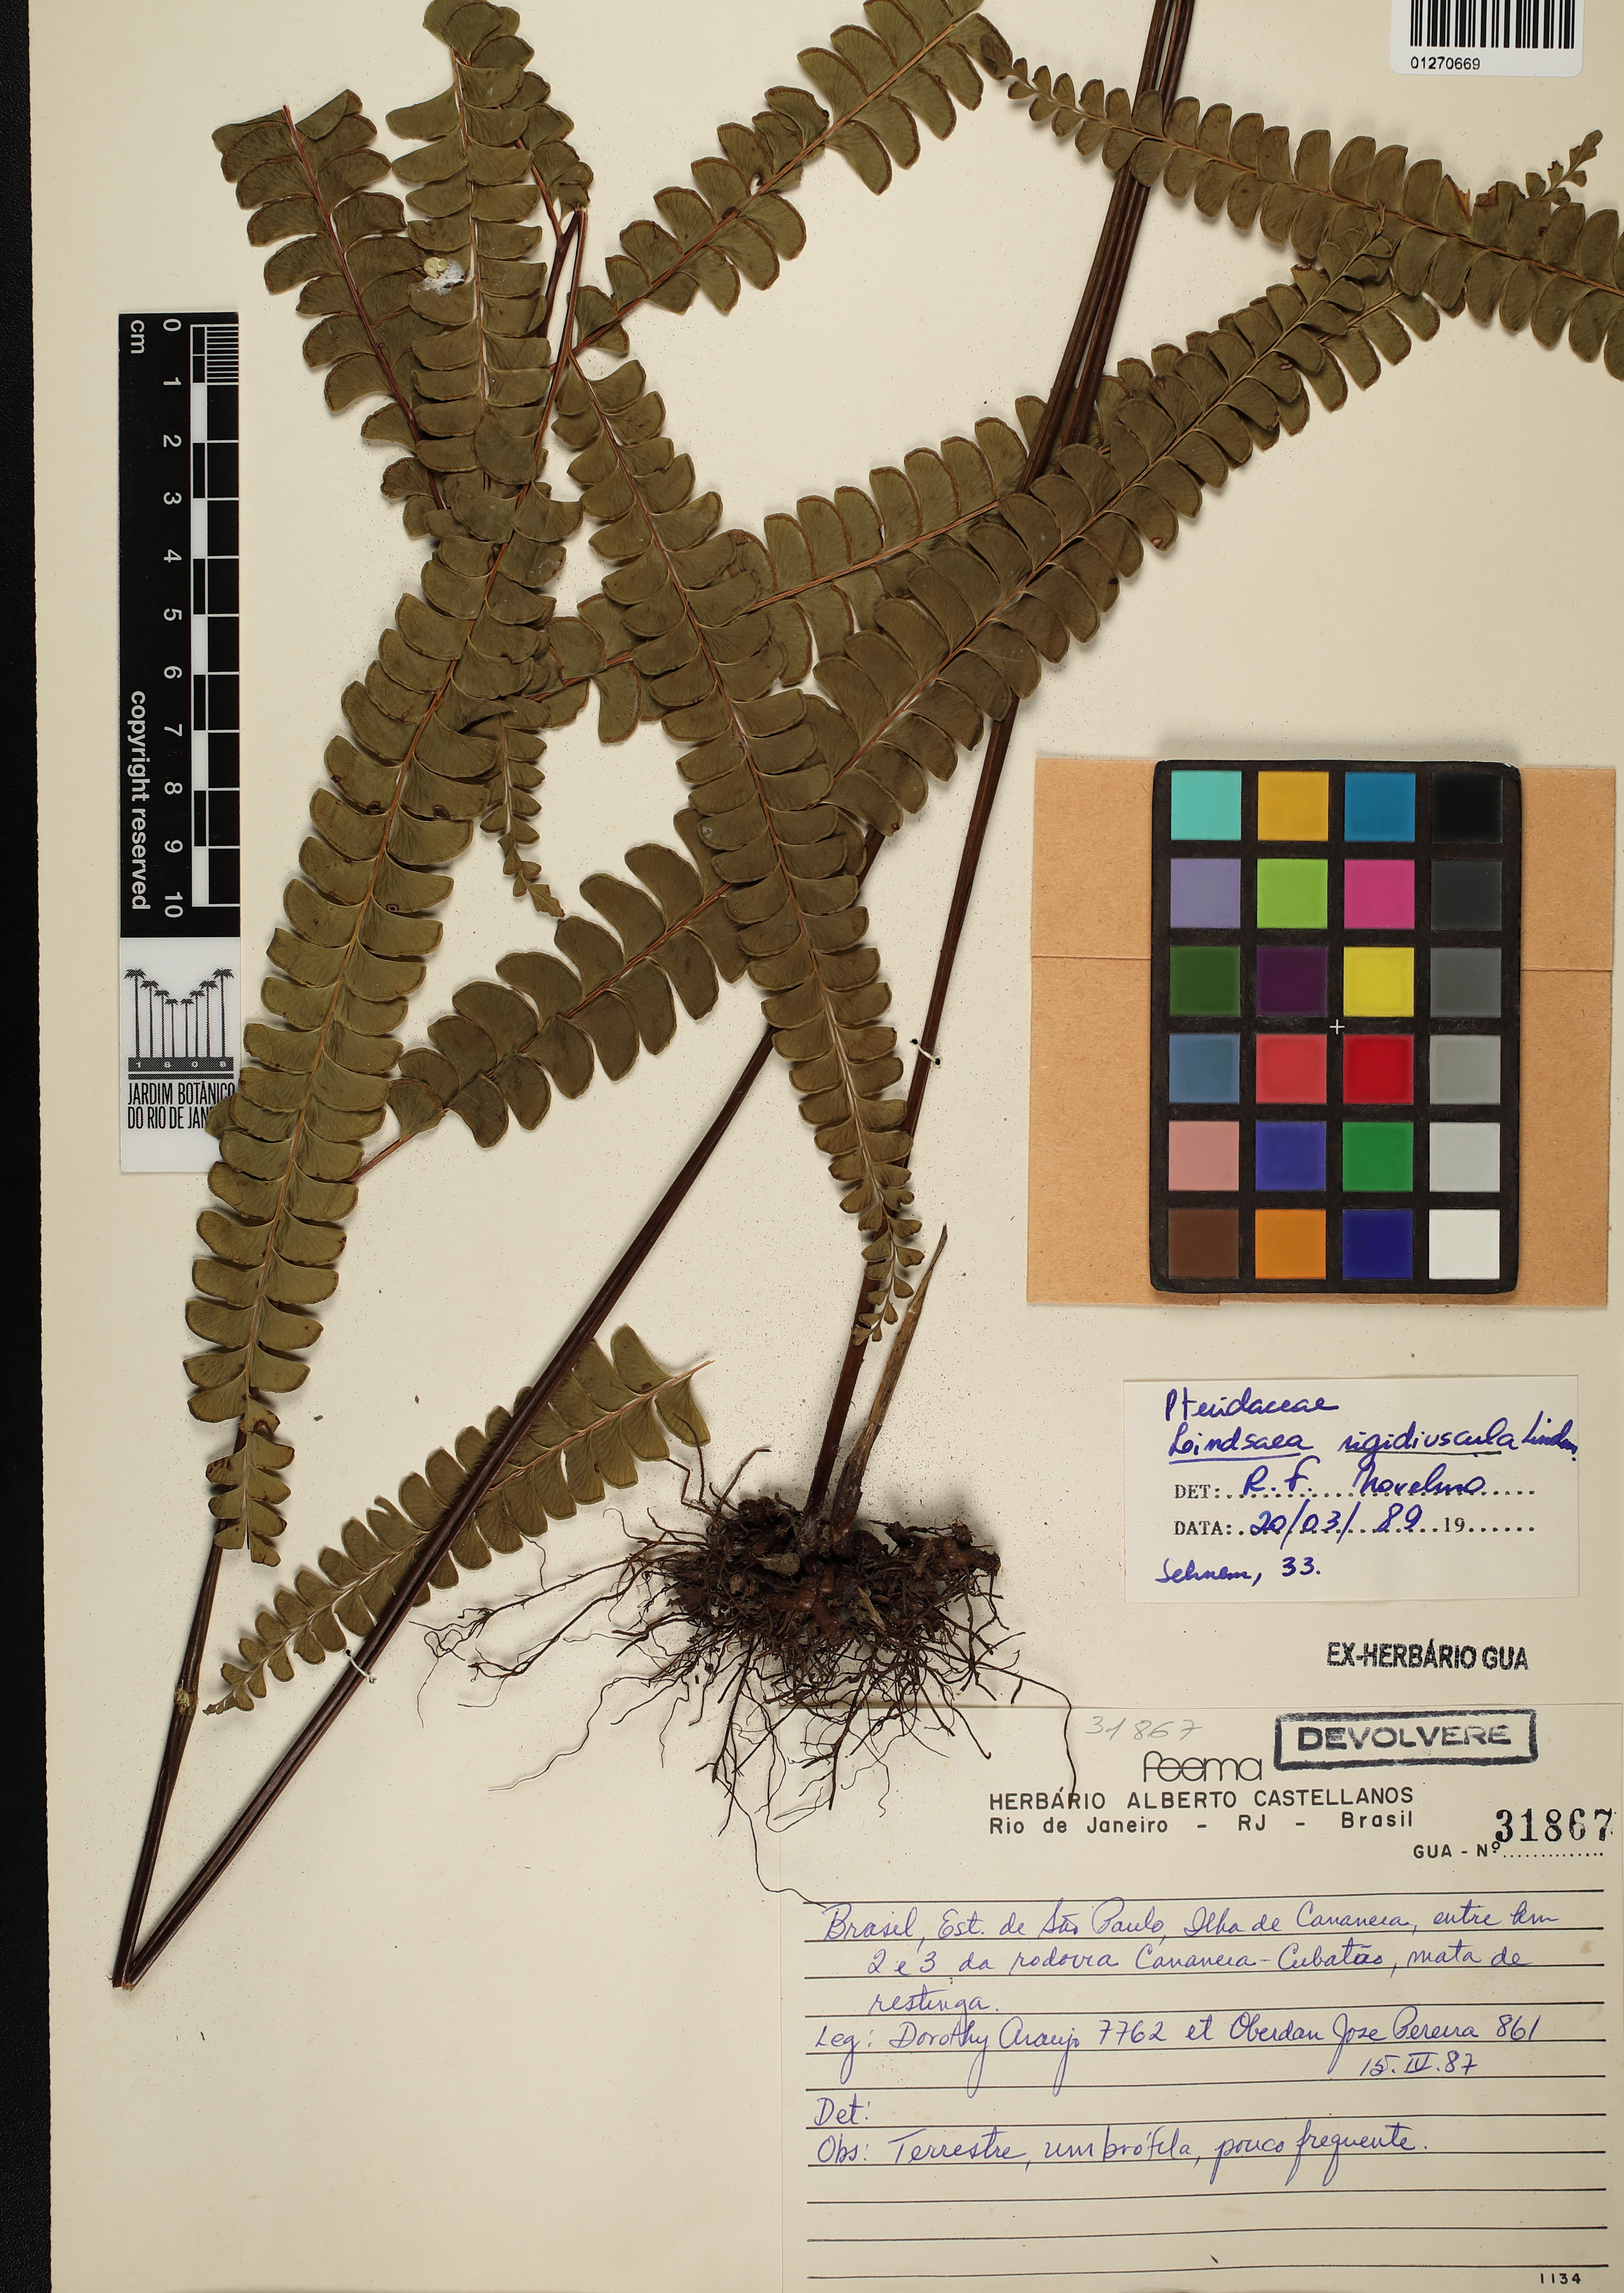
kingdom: Plantae
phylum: Tracheophyta
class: Polypodiopsida
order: Polypodiales
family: Lindsaeaceae
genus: Lindsaea
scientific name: Lindsaea rigidiuscula
